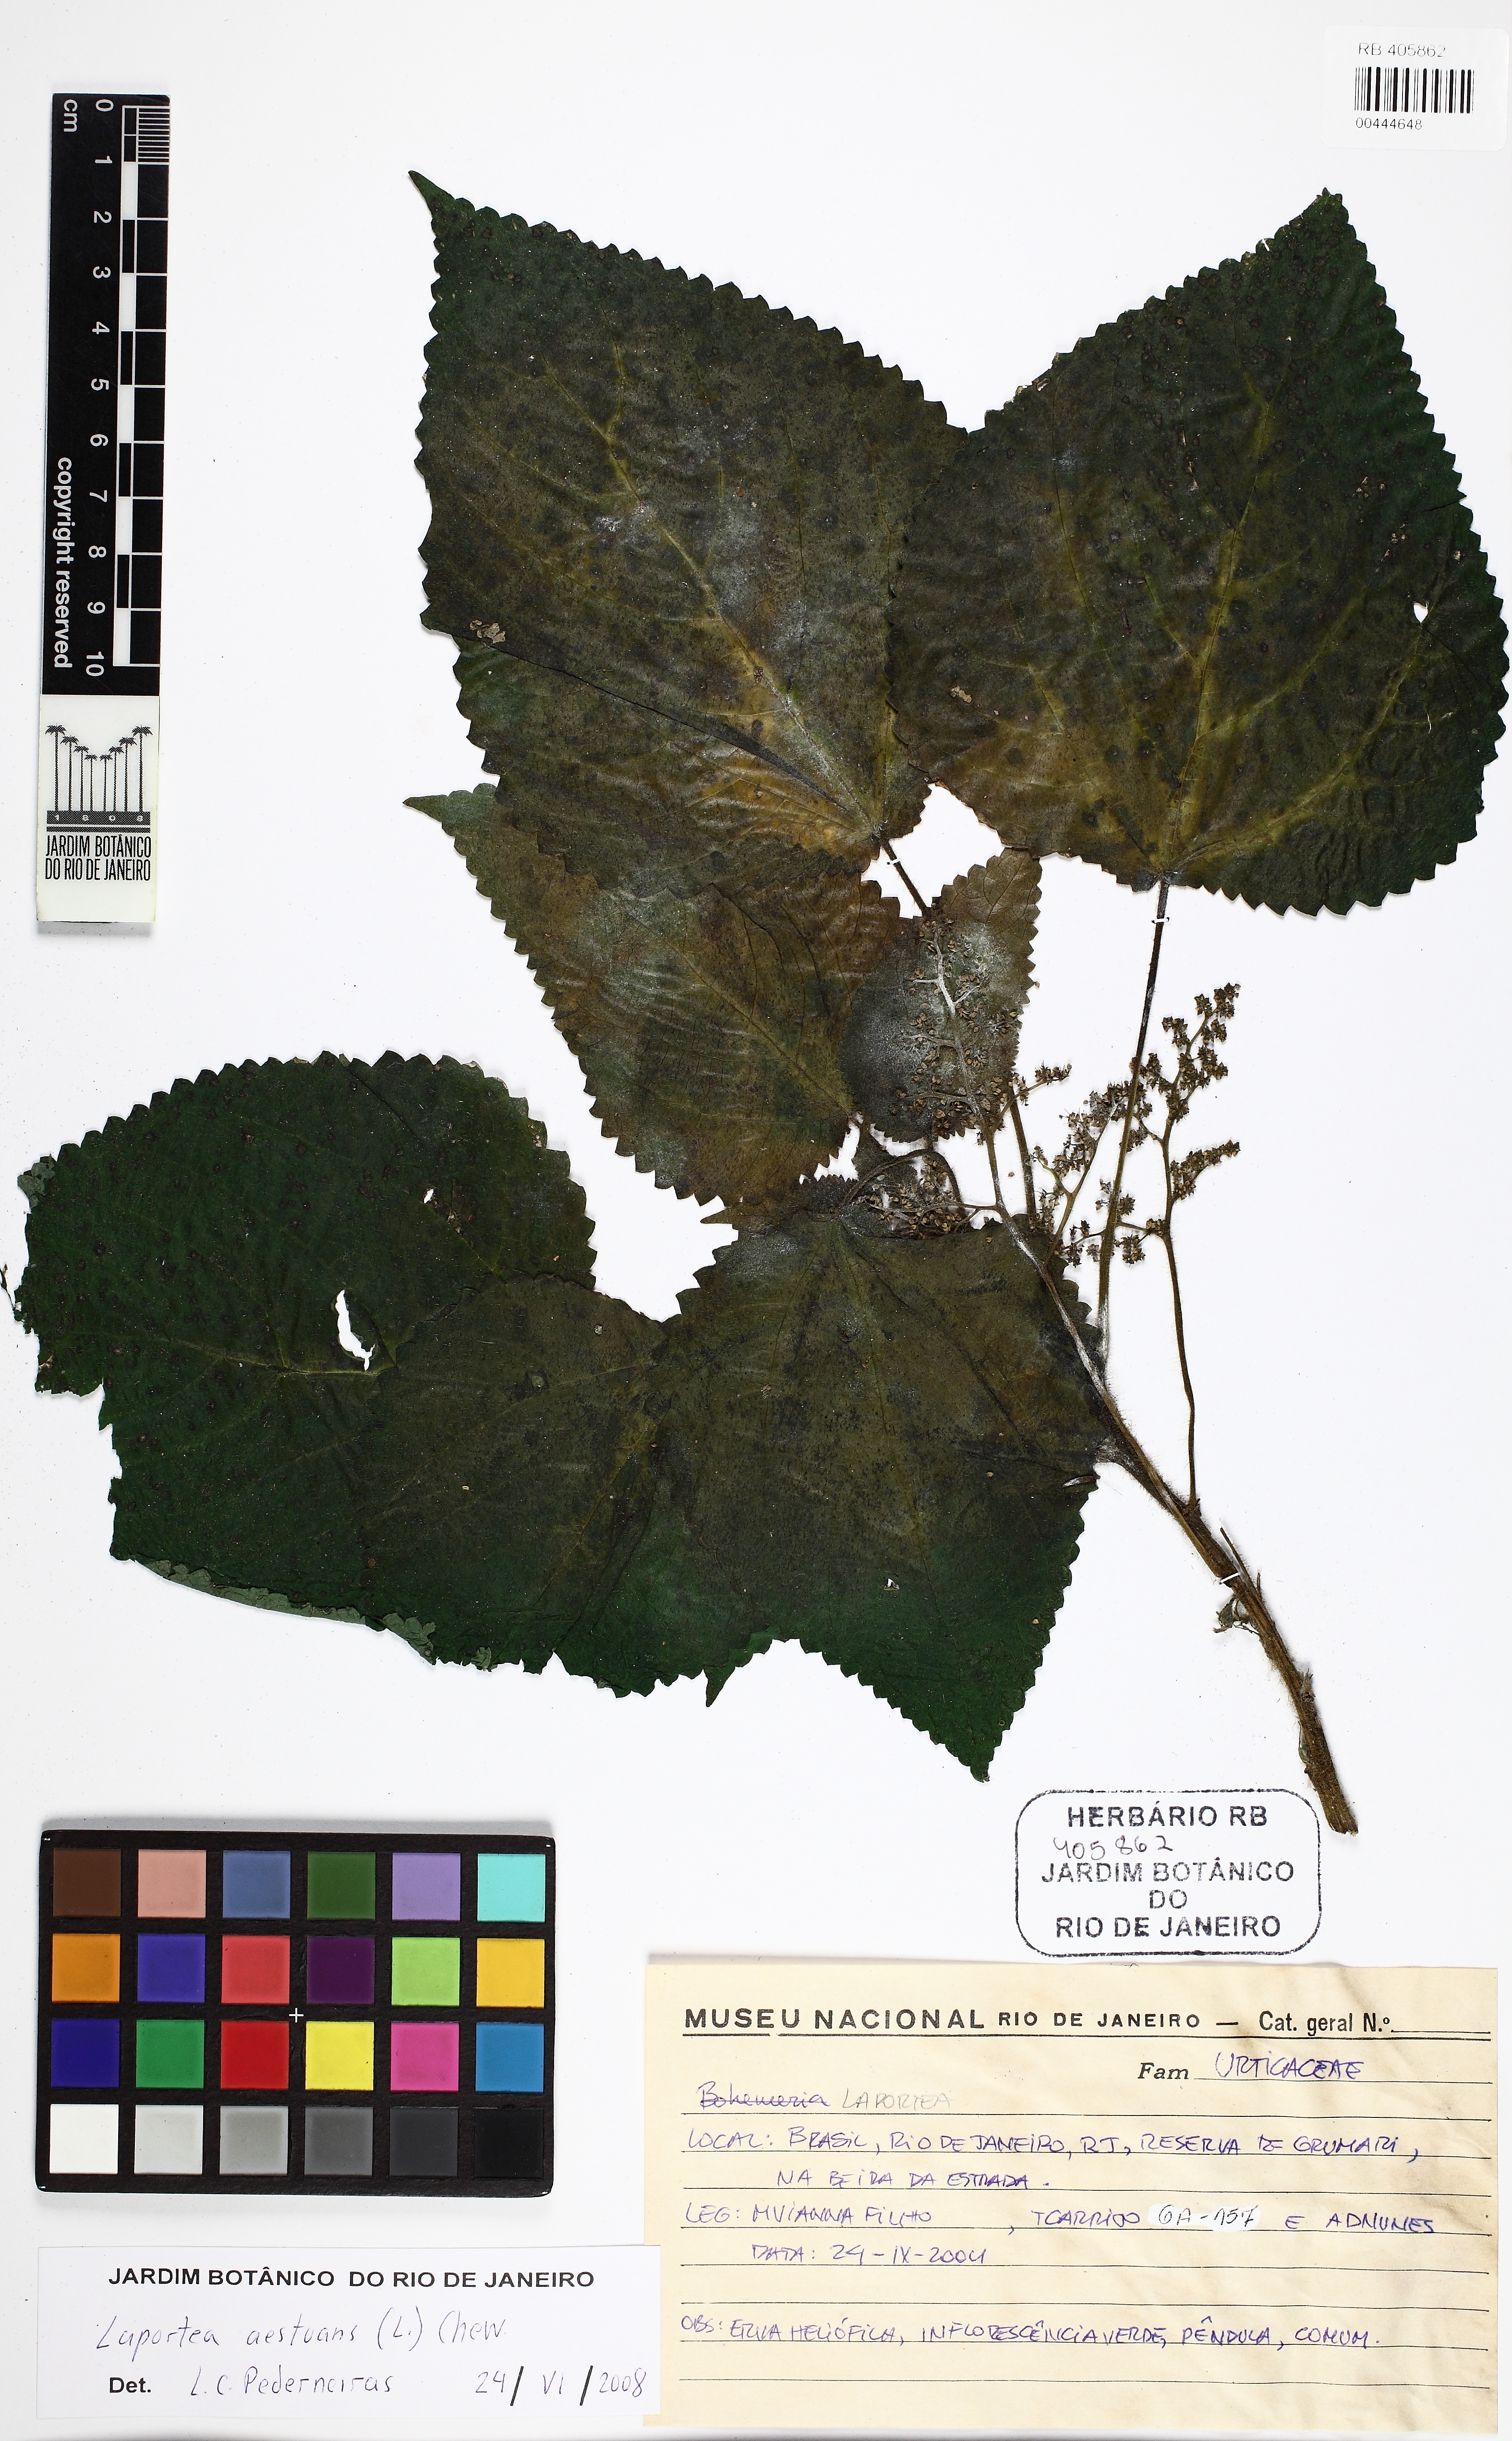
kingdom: Plantae
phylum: Tracheophyta
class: Magnoliopsida
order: Rosales
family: Urticaceae
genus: Laportea
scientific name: Laportea aestuans
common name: West indian woodnettle
